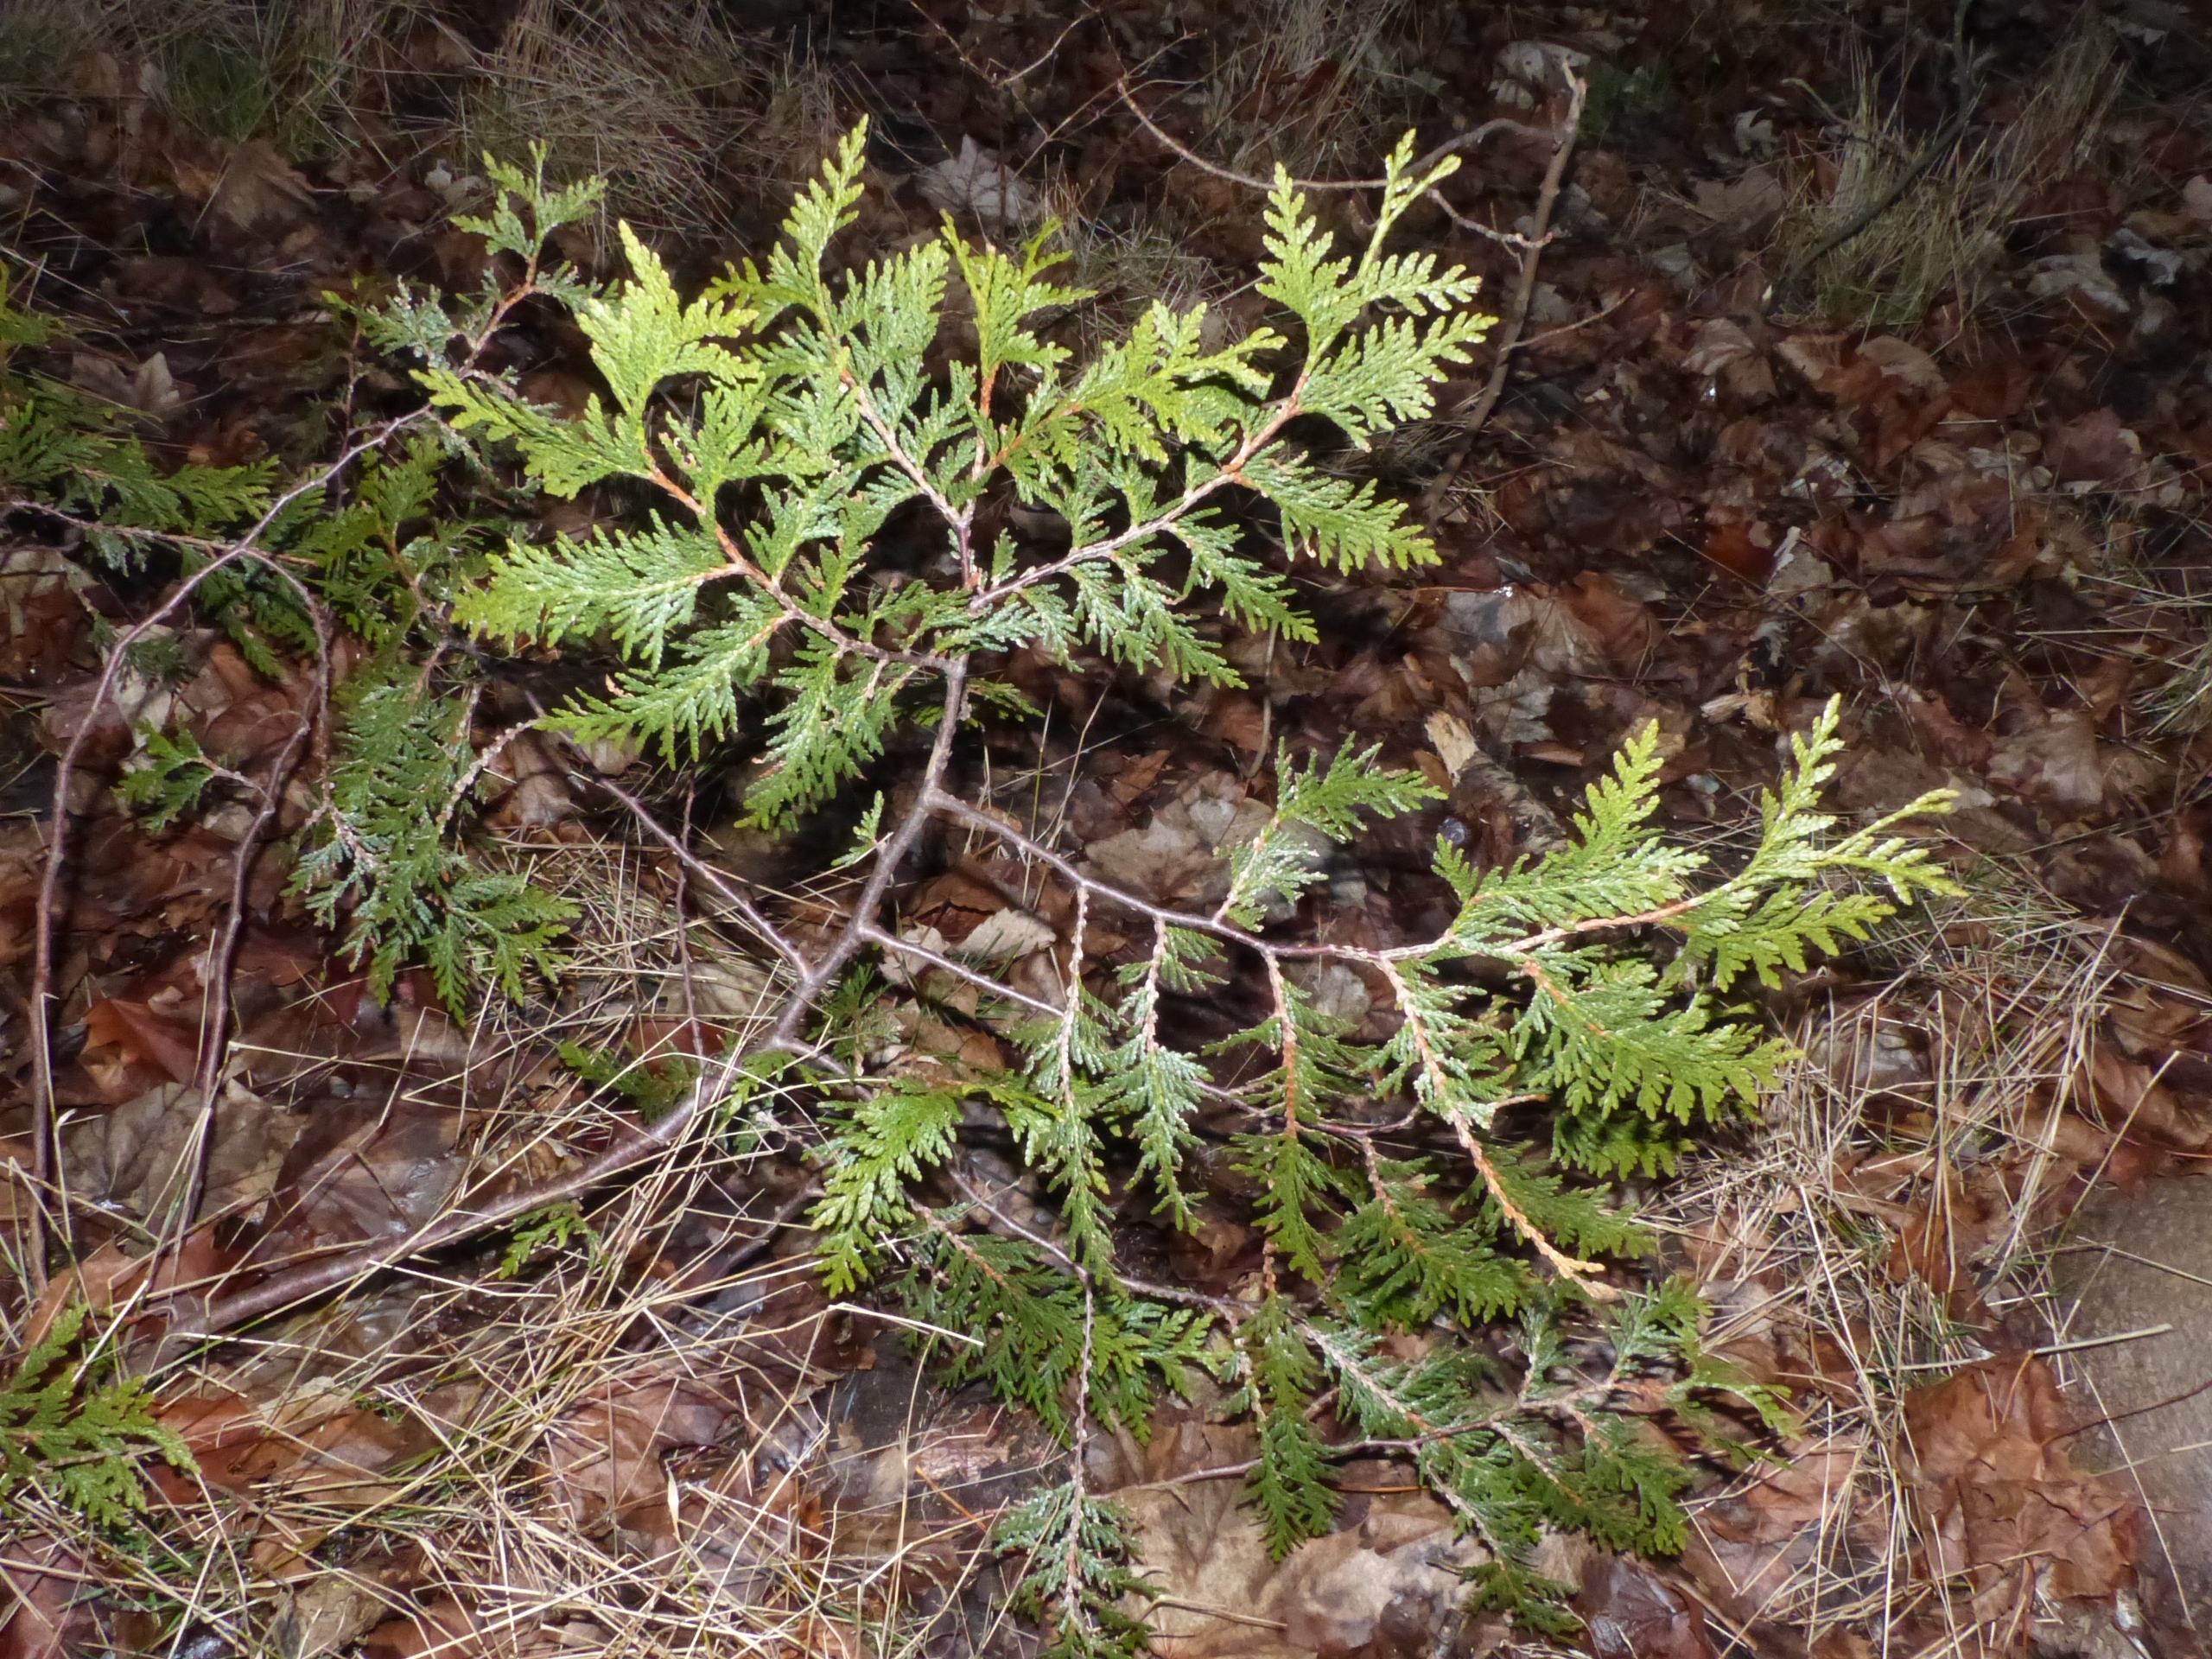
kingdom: Plantae
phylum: Tracheophyta
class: Pinopsida
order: Pinales
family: Cupressaceae
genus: Thuja
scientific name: Thuja occidentalis
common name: Almindelig thuja
